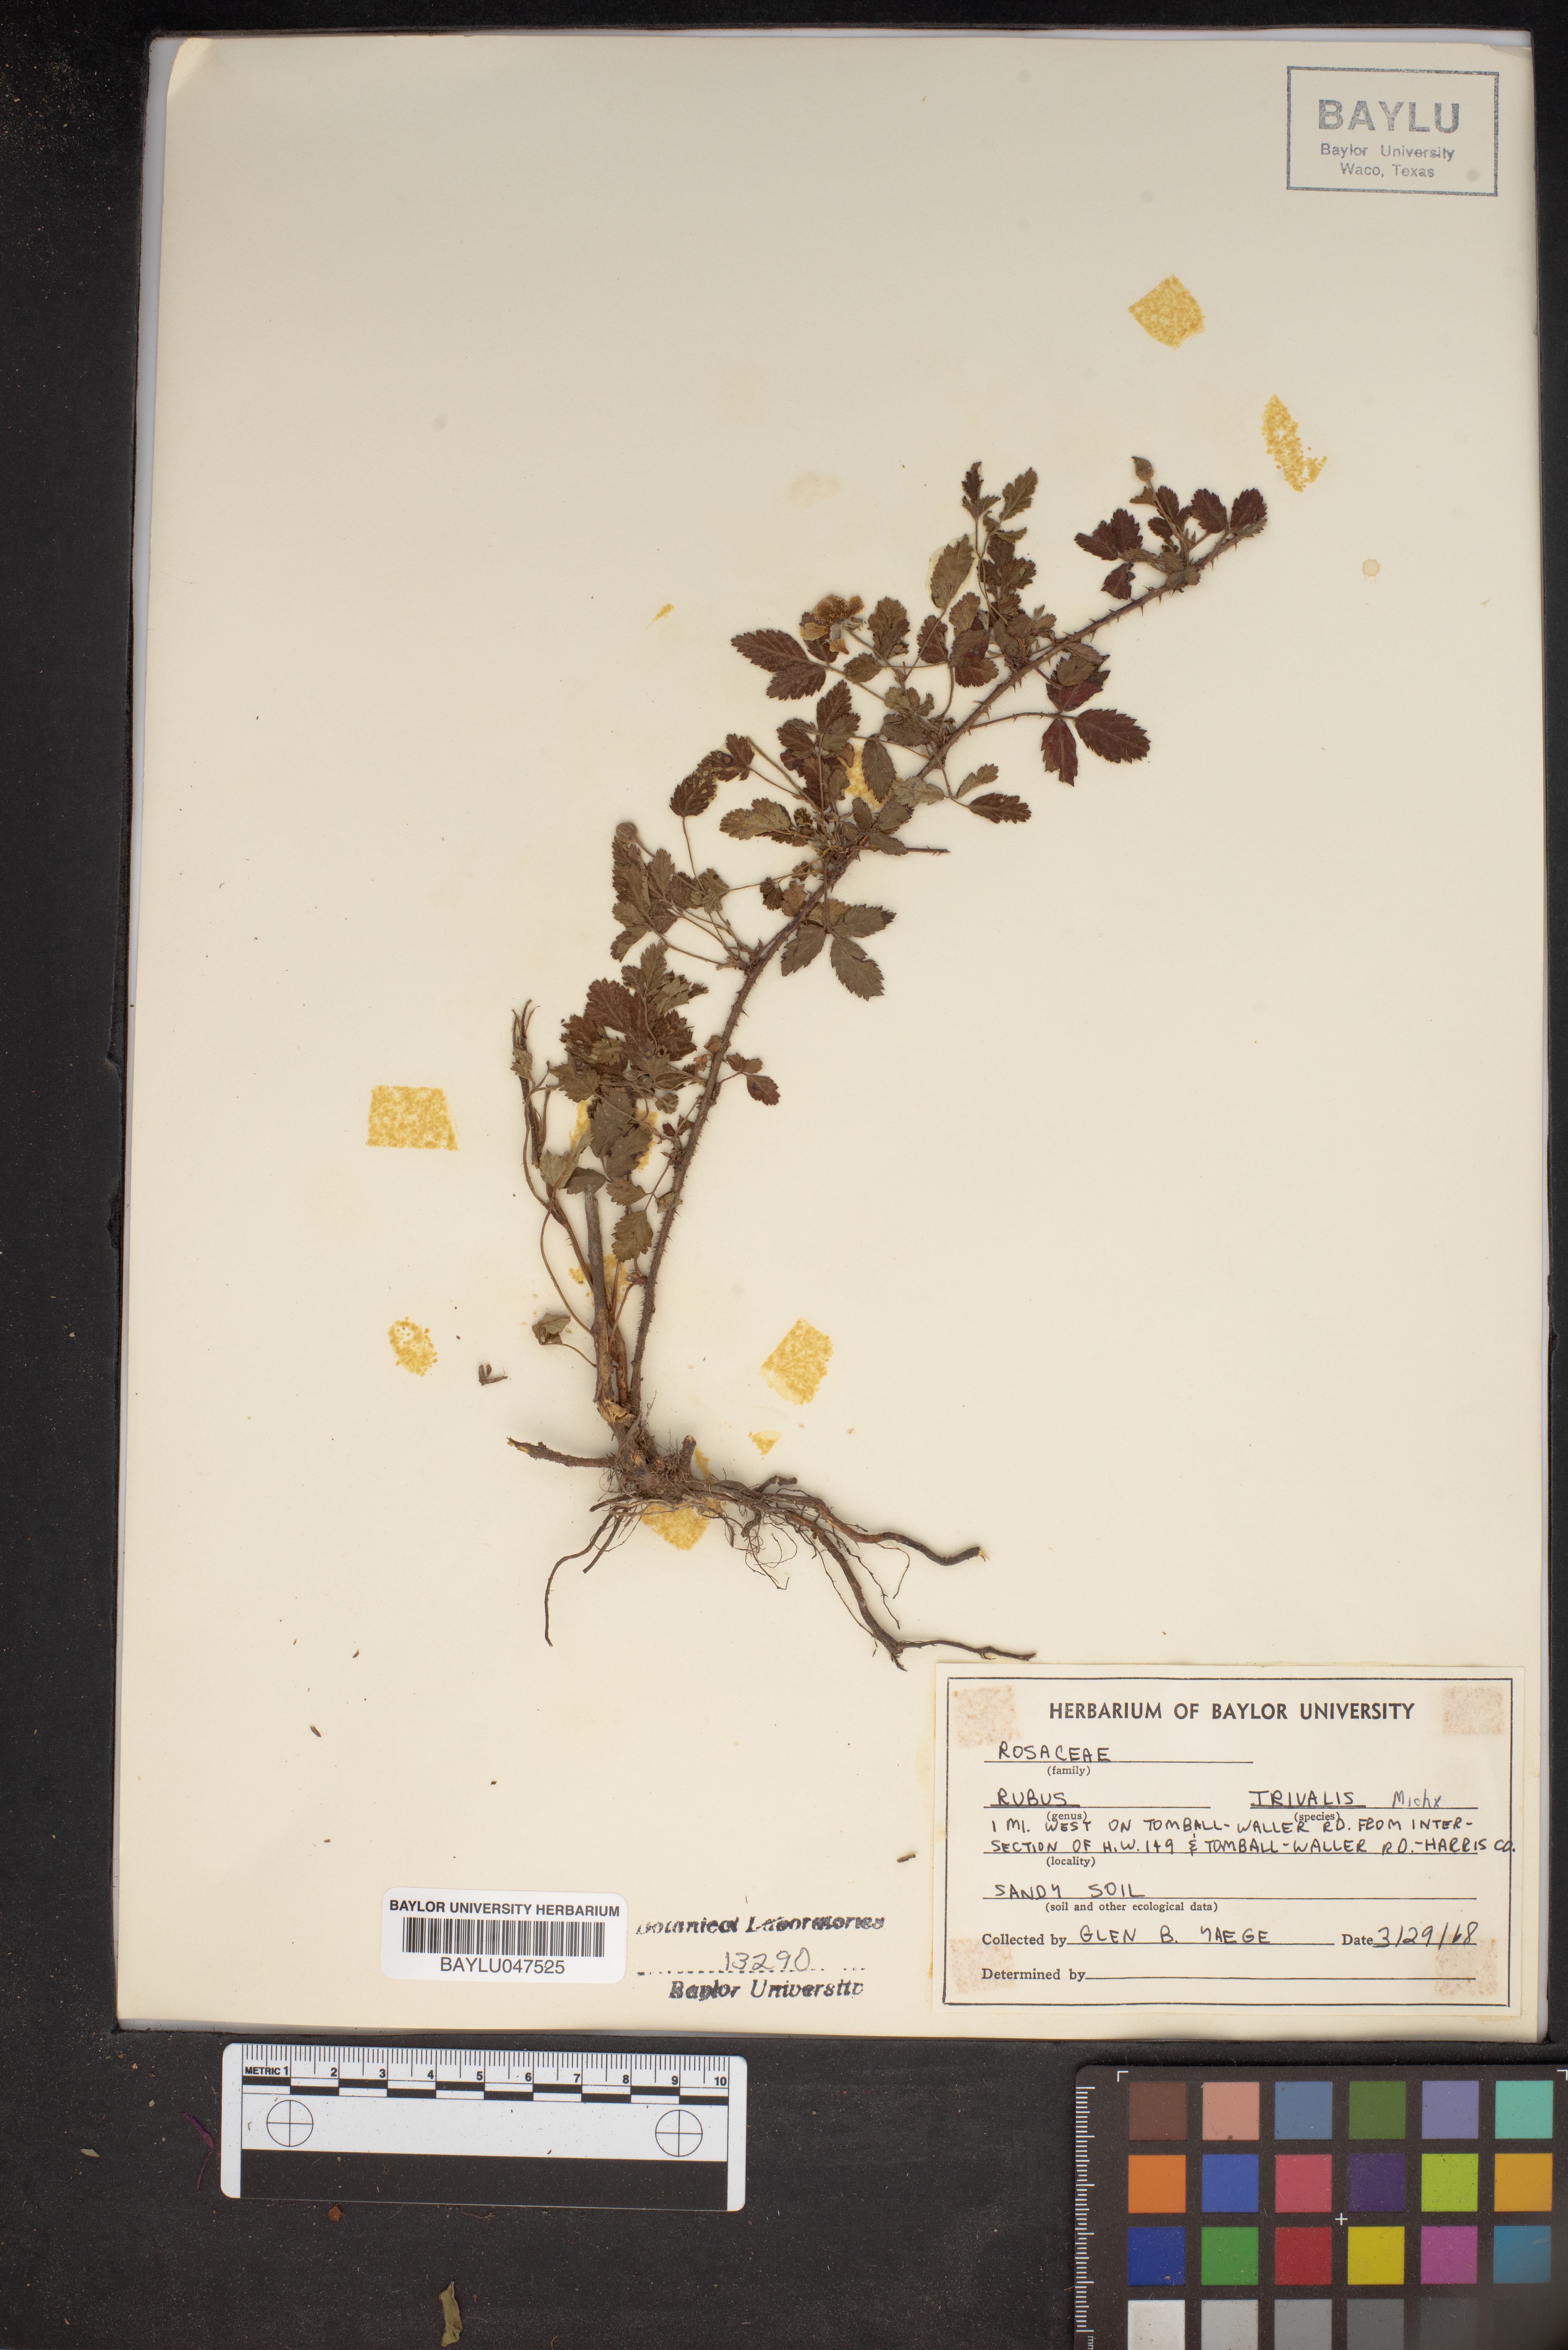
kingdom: Plantae
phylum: Tracheophyta
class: Magnoliopsida
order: Rosales
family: Rosaceae
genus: Rubus
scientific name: Rubus trivialis
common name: Southern dewberry
